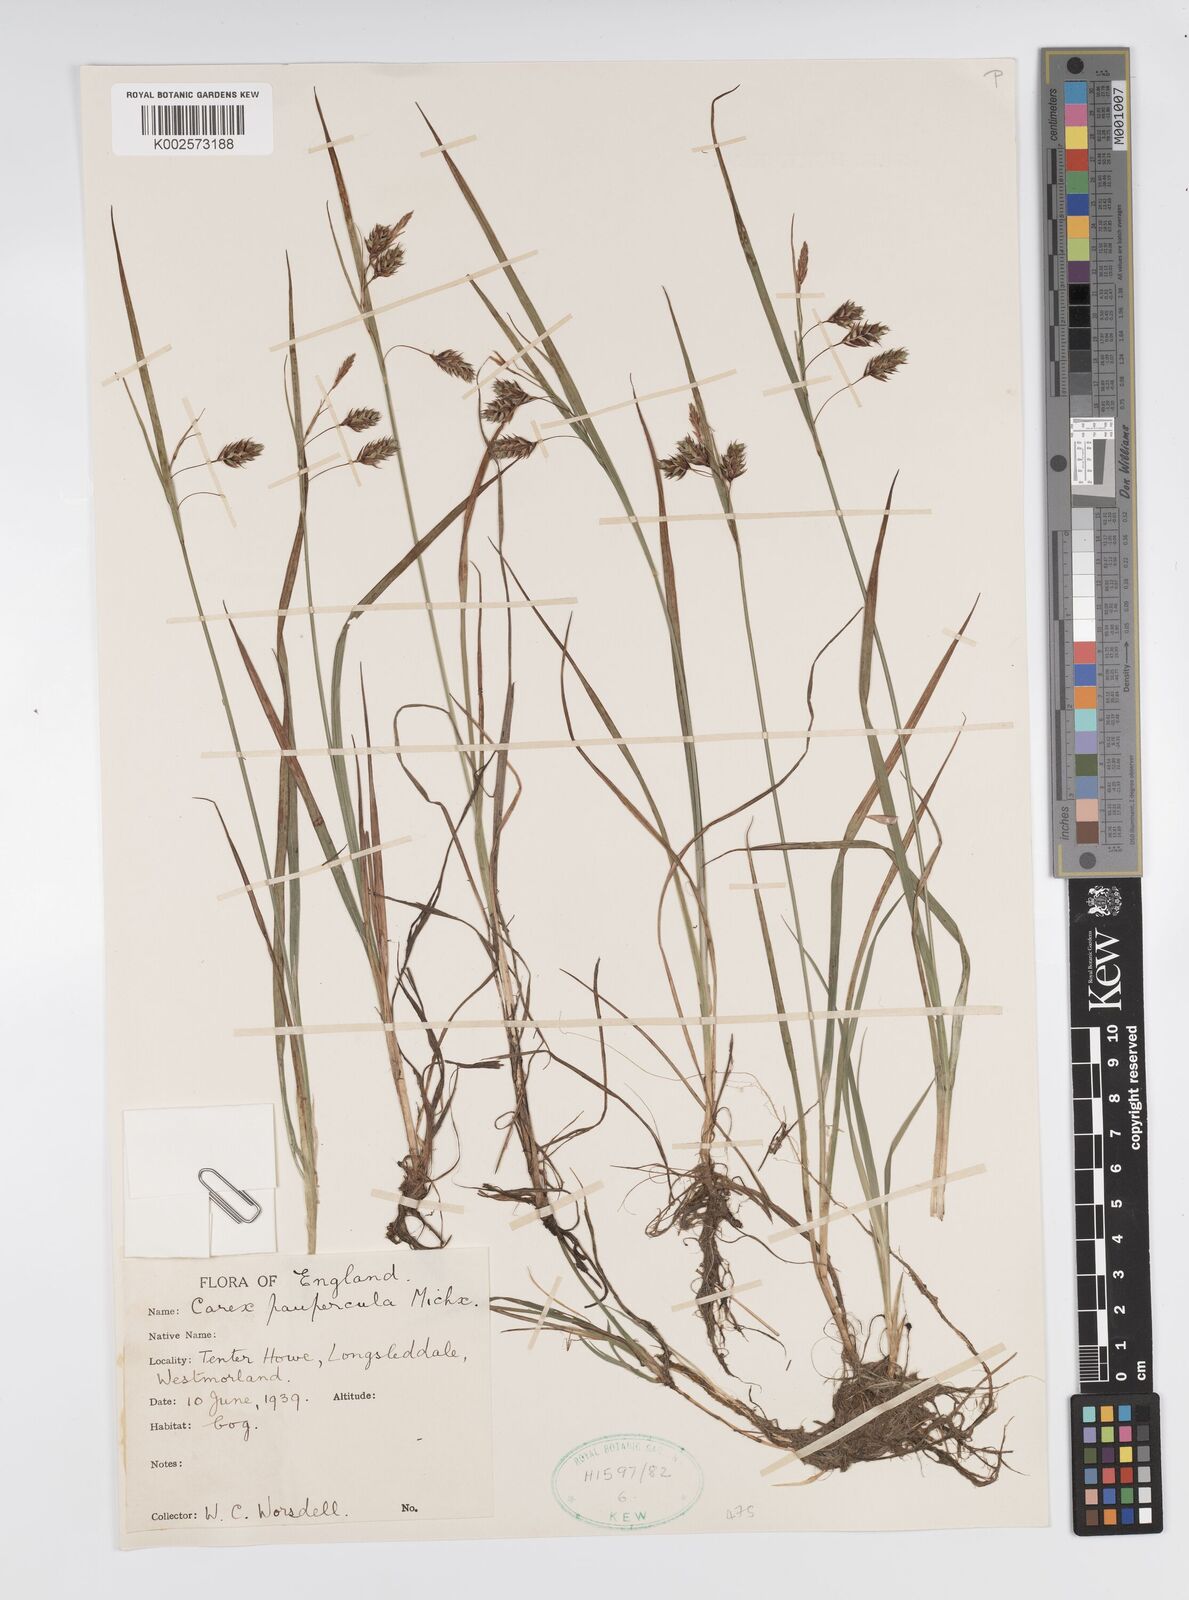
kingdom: Plantae
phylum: Tracheophyta
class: Liliopsida
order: Poales
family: Cyperaceae
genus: Carex
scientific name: Carex magellanica
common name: Bog sedge
